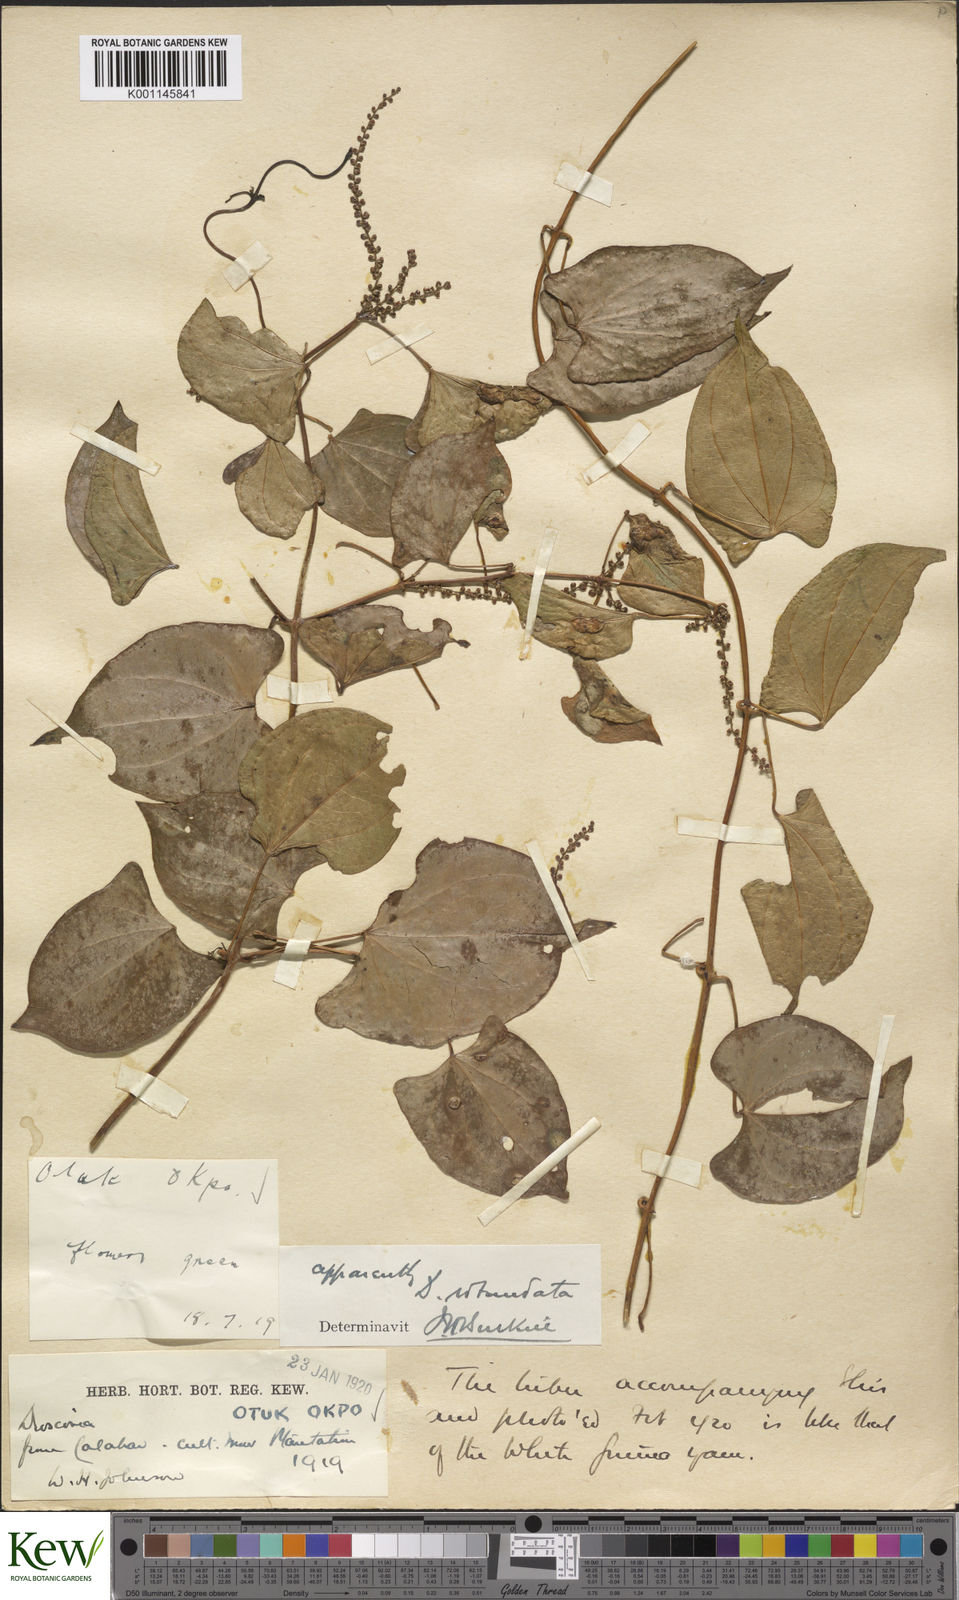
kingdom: Plantae
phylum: Tracheophyta
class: Liliopsida
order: Dioscoreales
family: Dioscoreaceae
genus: Dioscorea
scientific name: Dioscorea cayenensis
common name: Attoto yam
